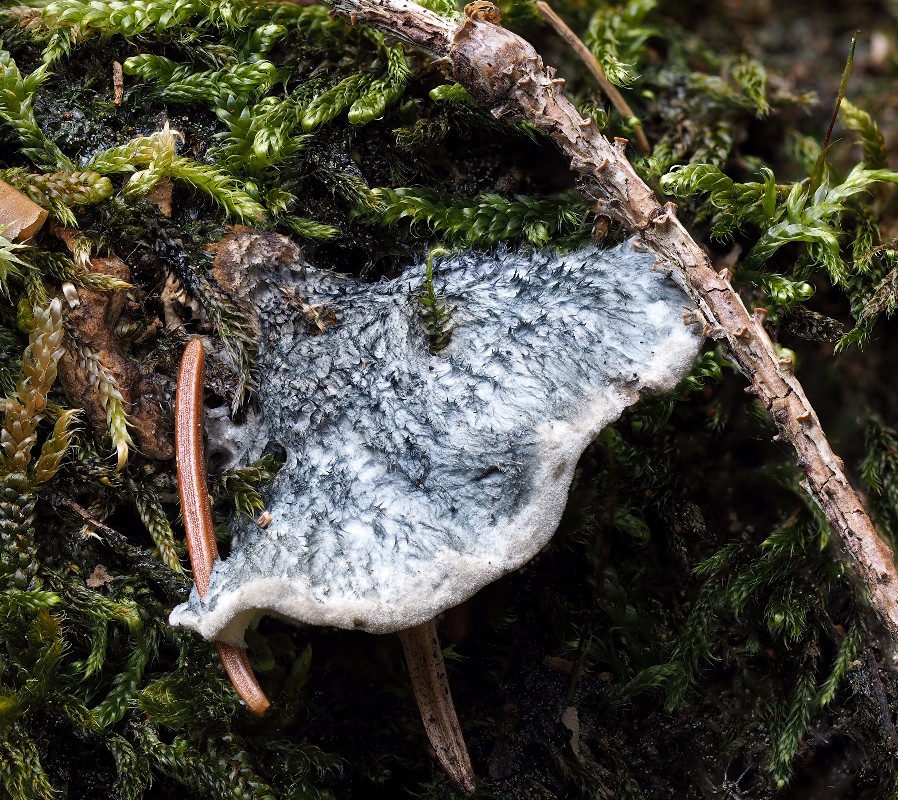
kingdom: Fungi
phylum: Basidiomycota
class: Agaricomycetes
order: Polyporales
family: Polyporaceae
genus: Cyanosporus
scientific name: Cyanosporus caesius
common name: blålig kødporesvamp
